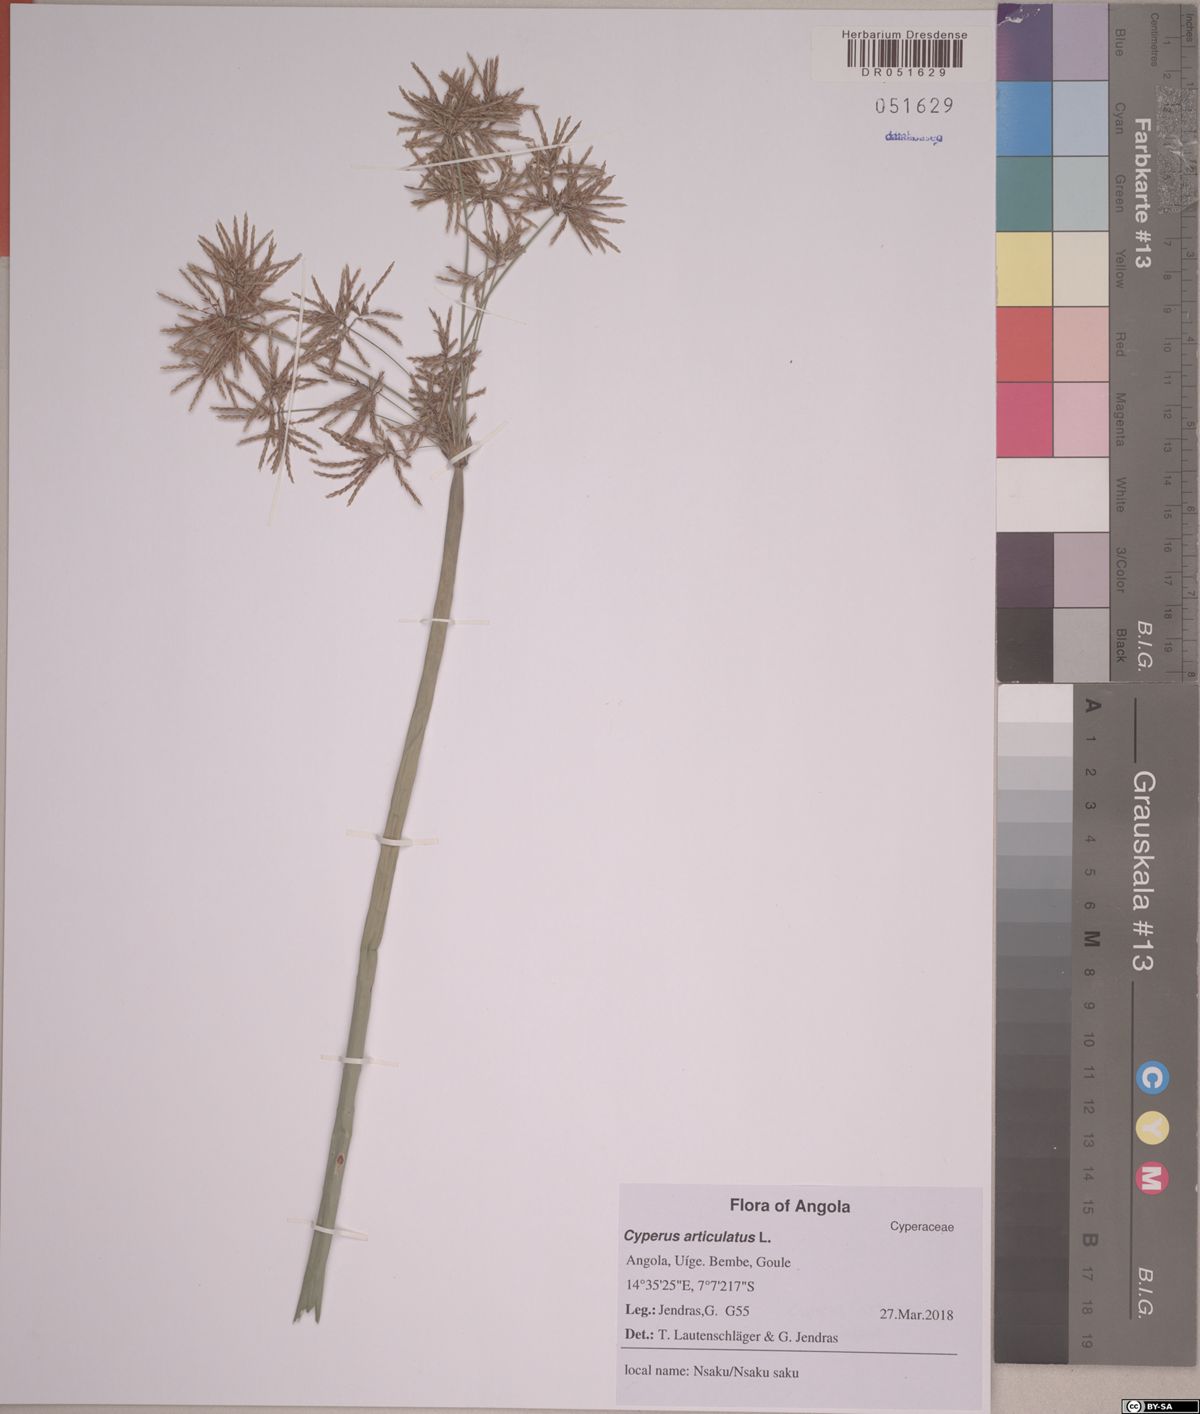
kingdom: Plantae
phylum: Tracheophyta
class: Liliopsida
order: Poales
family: Cyperaceae
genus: Cyperus
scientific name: Cyperus articulatus
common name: Jointed flatsedge
